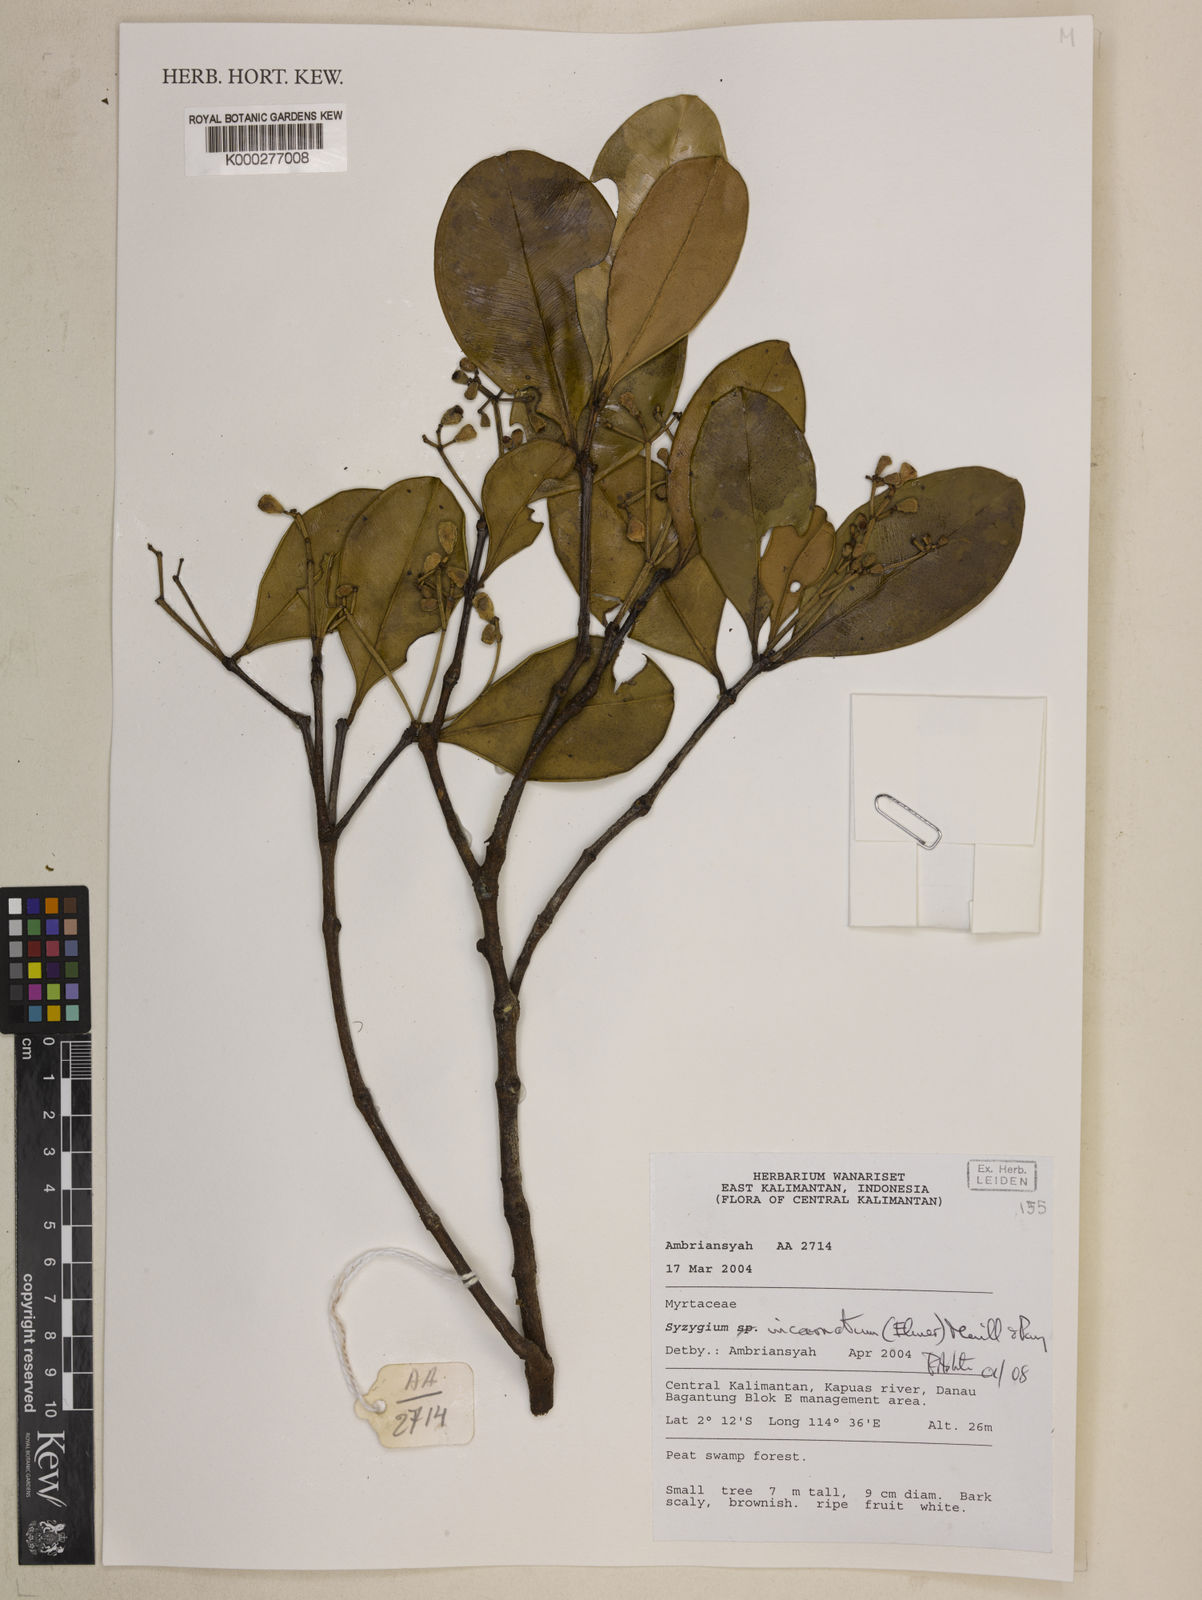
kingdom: Plantae
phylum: Tracheophyta
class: Magnoliopsida
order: Myrtales
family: Myrtaceae
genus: Syzygium
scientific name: Syzygium incarnatum
